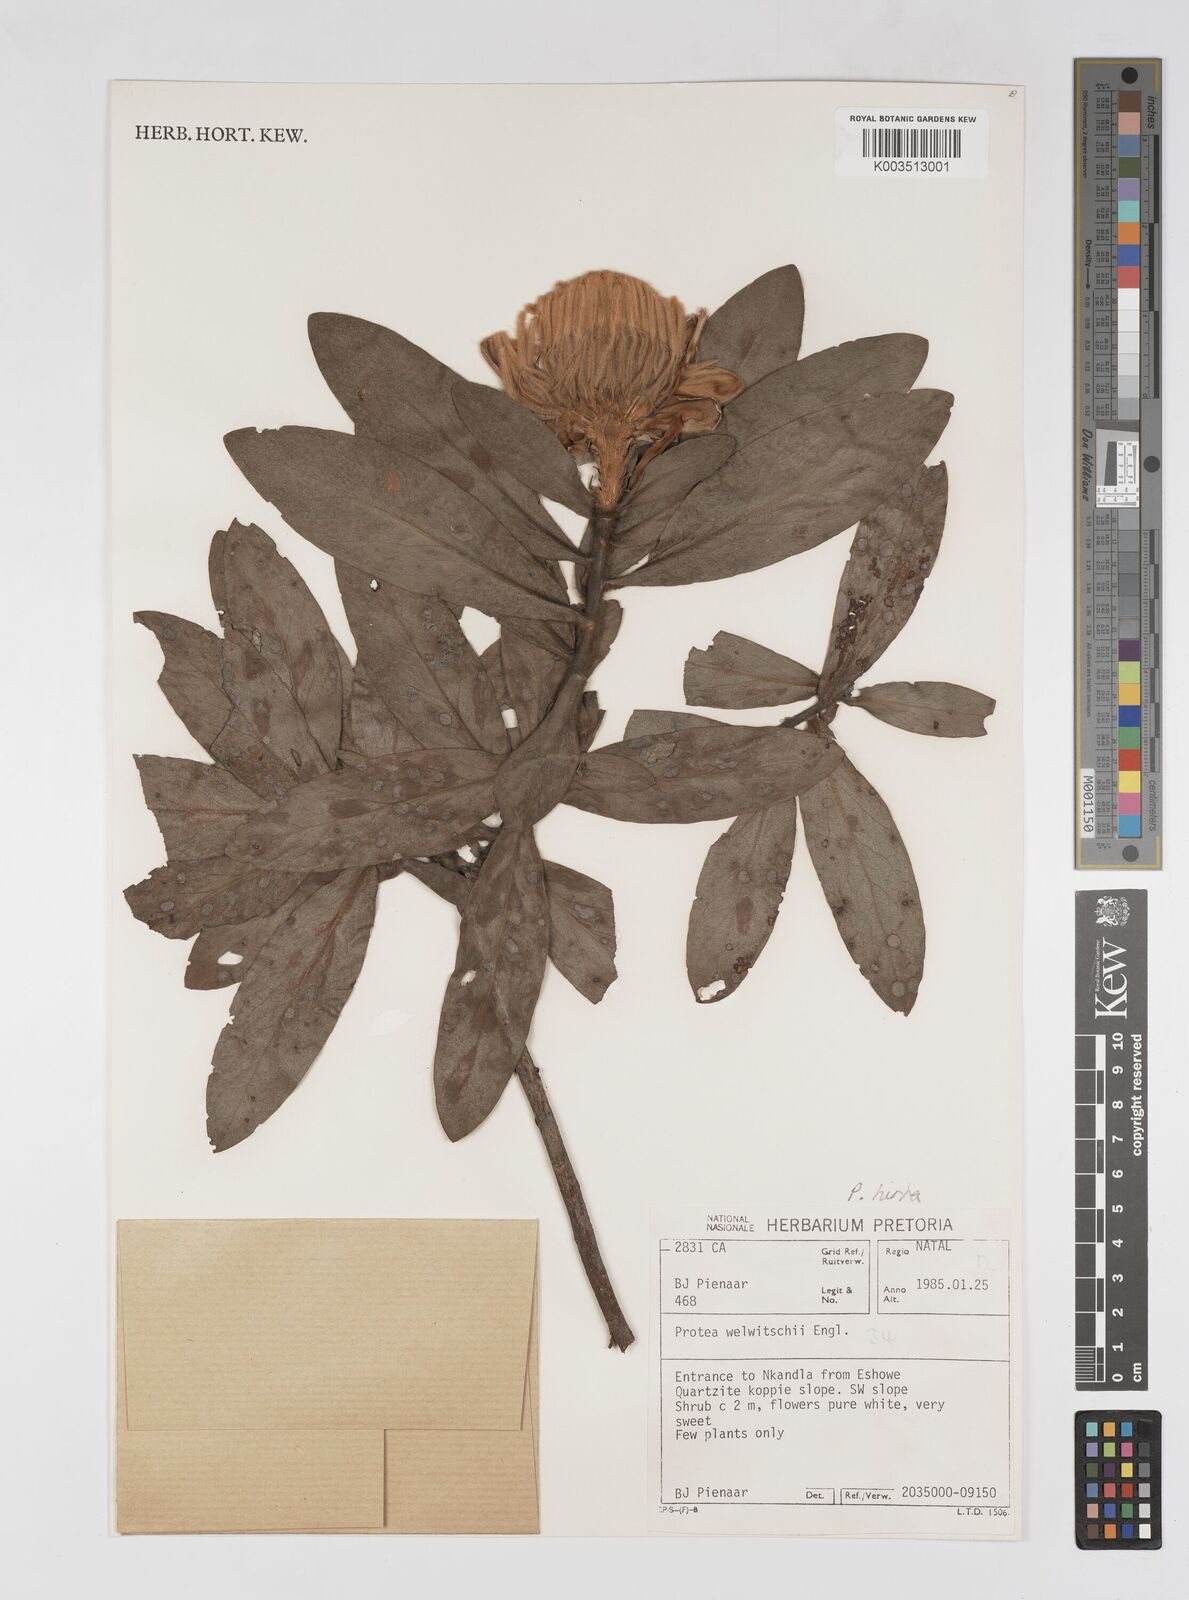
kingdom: Plantae
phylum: Tracheophyta
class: Magnoliopsida
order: Proteales
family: Proteaceae
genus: Protea
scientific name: Protea welwitschii
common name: Cluster-head protea
